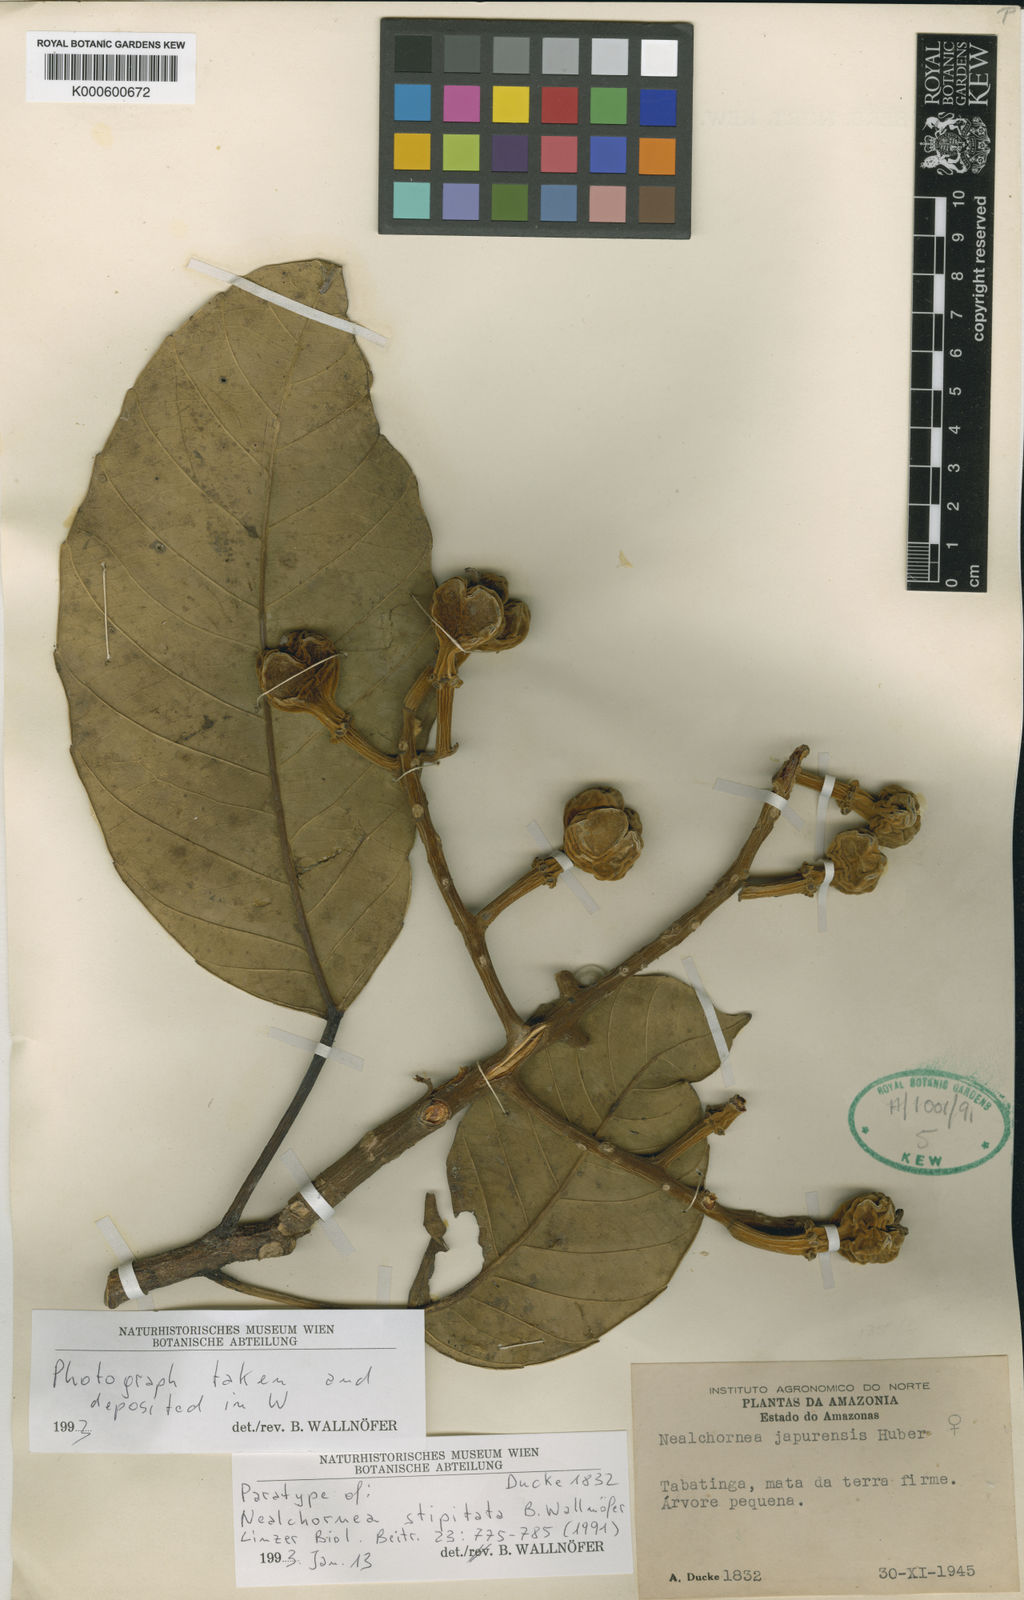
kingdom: Plantae
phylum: Tracheophyta
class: Magnoliopsida
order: Malpighiales
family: Euphorbiaceae
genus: Nealchornea
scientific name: Nealchornea stipitata
